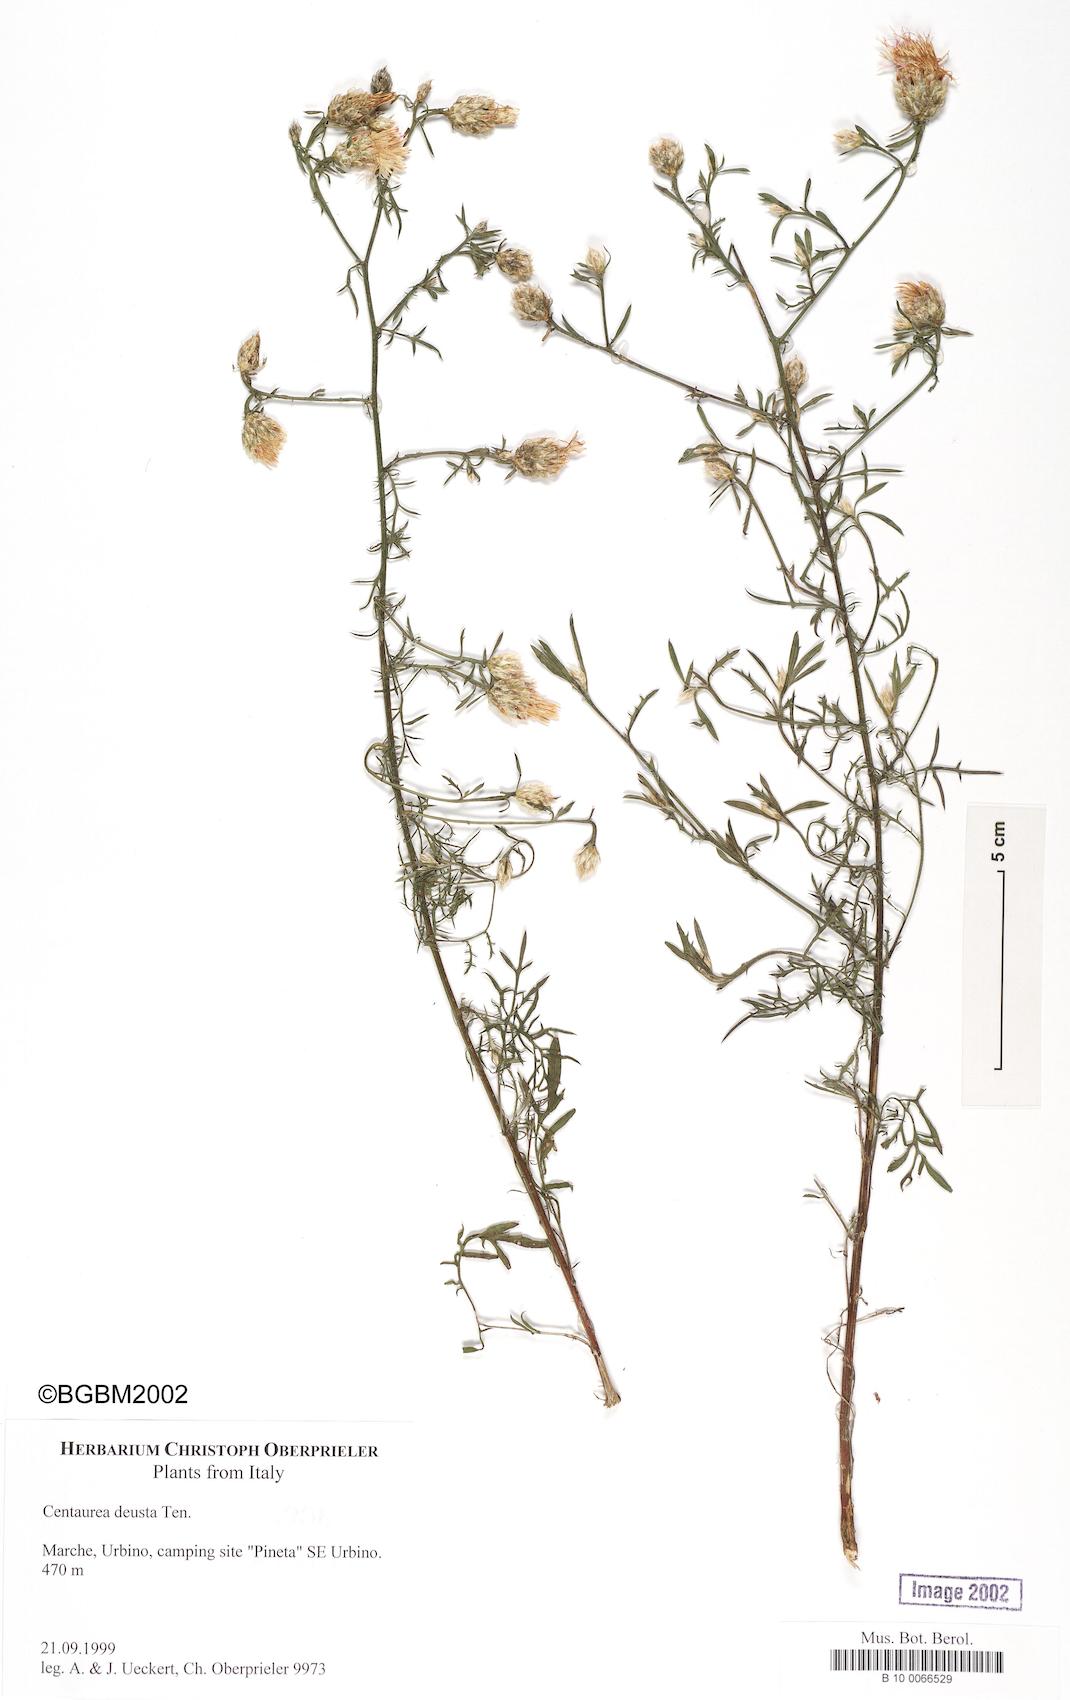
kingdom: Plantae
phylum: Tracheophyta
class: Magnoliopsida
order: Asterales
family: Asteraceae
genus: Centaurea
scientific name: Centaurea deusta
